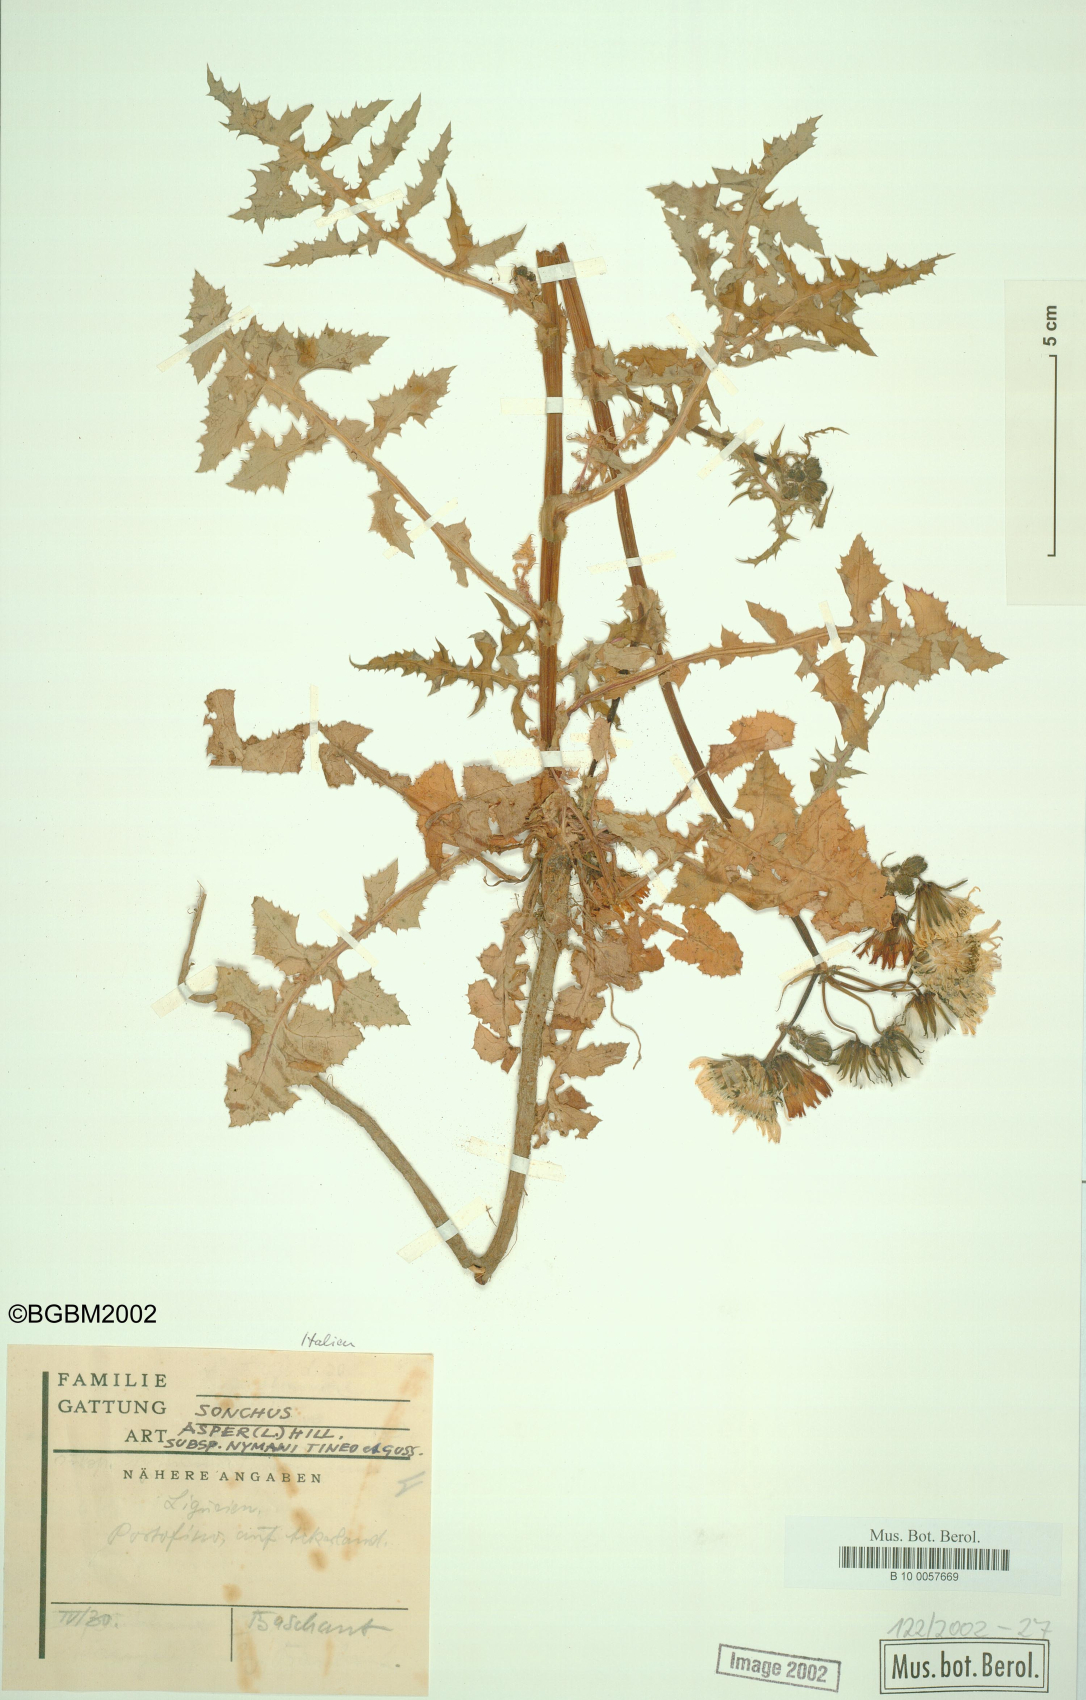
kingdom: Plantae
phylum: Tracheophyta
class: Magnoliopsida
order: Asterales
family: Asteraceae
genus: Sonchus
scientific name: Sonchus asper
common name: Prickly sow-thistle
